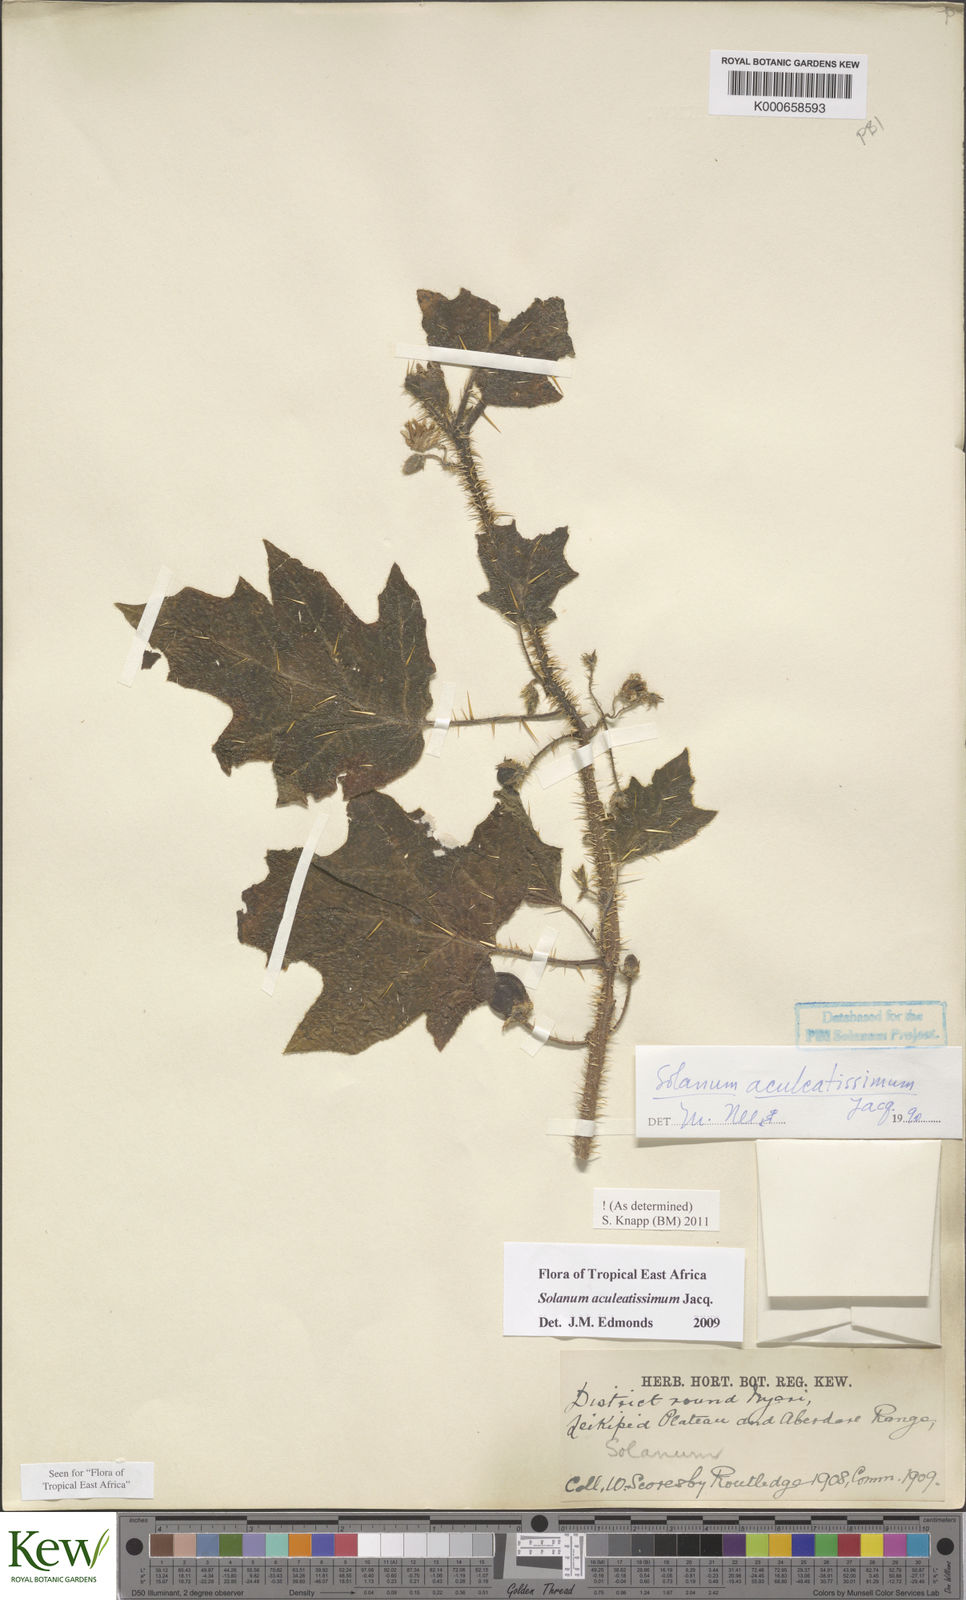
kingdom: Plantae
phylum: Tracheophyta
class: Magnoliopsida
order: Solanales
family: Solanaceae
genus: Solanum
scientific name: Solanum aculeatissimum
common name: Dutch eggplant
